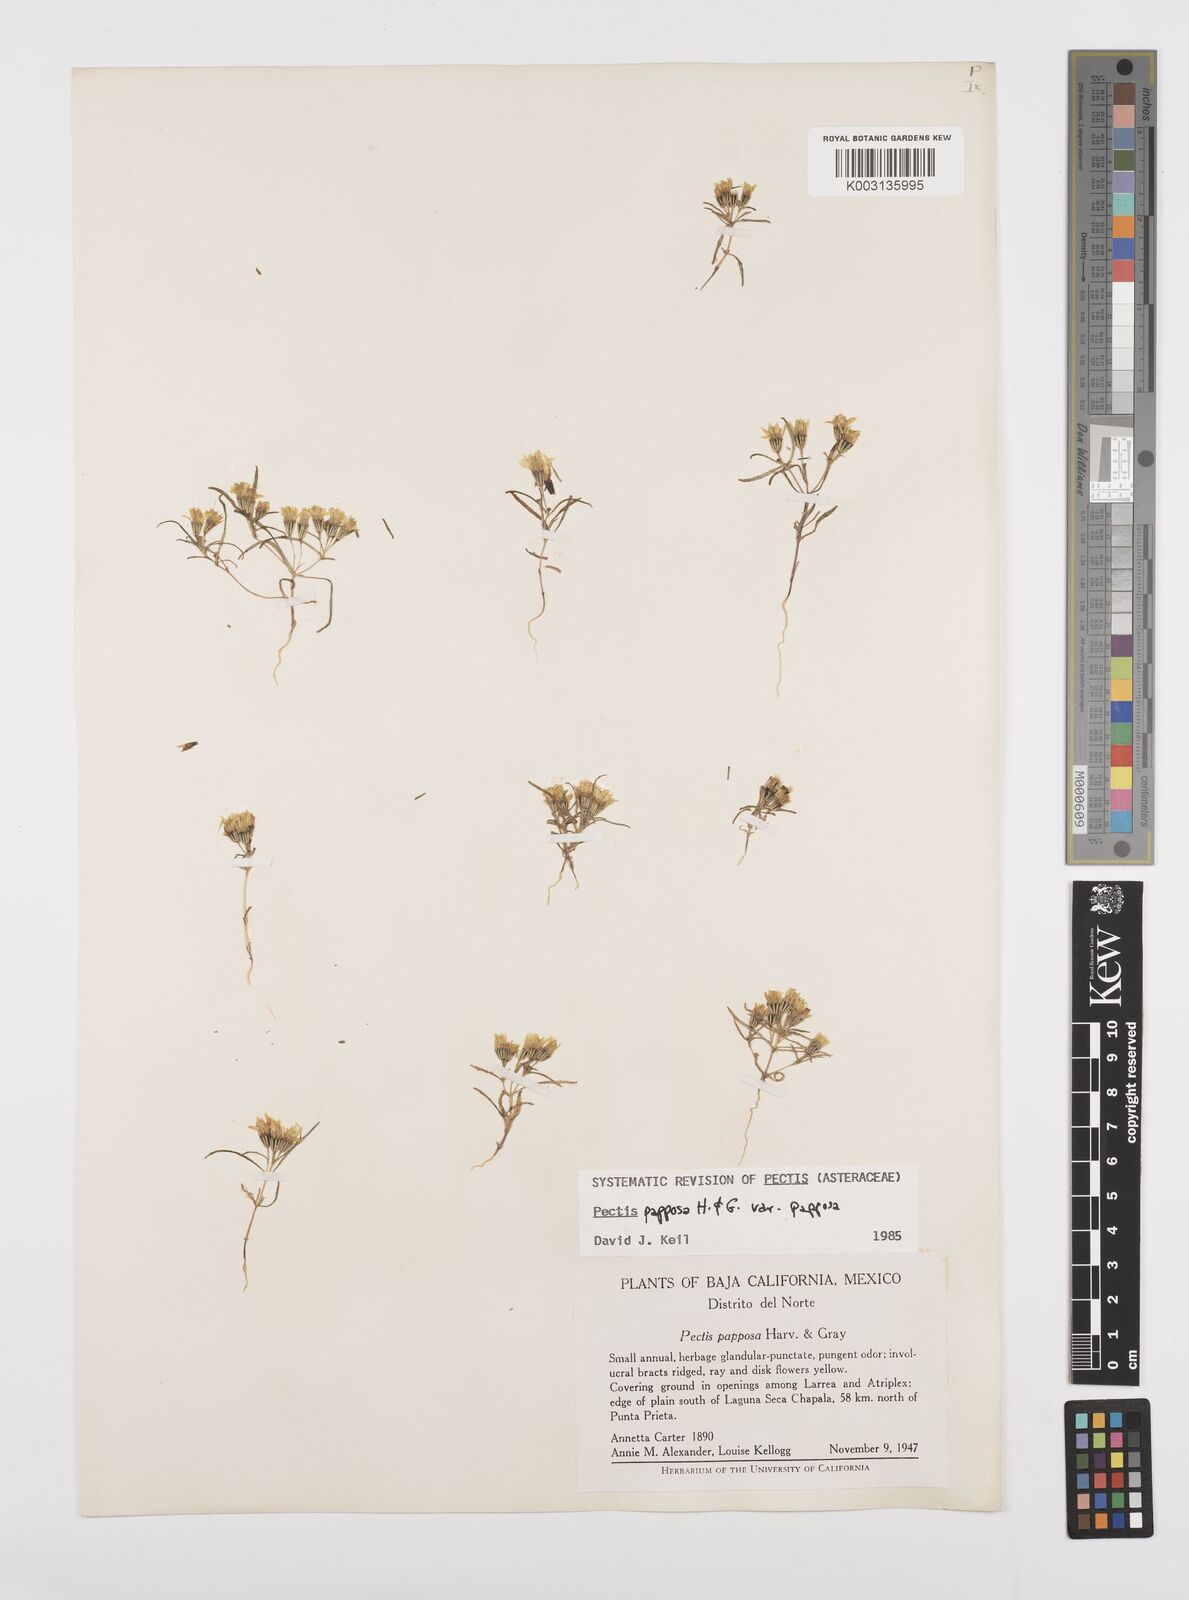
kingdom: Plantae
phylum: Tracheophyta
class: Magnoliopsida
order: Asterales
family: Asteraceae
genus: Pectis
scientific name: Pectis papposa
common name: Many-bristle chinchweed
